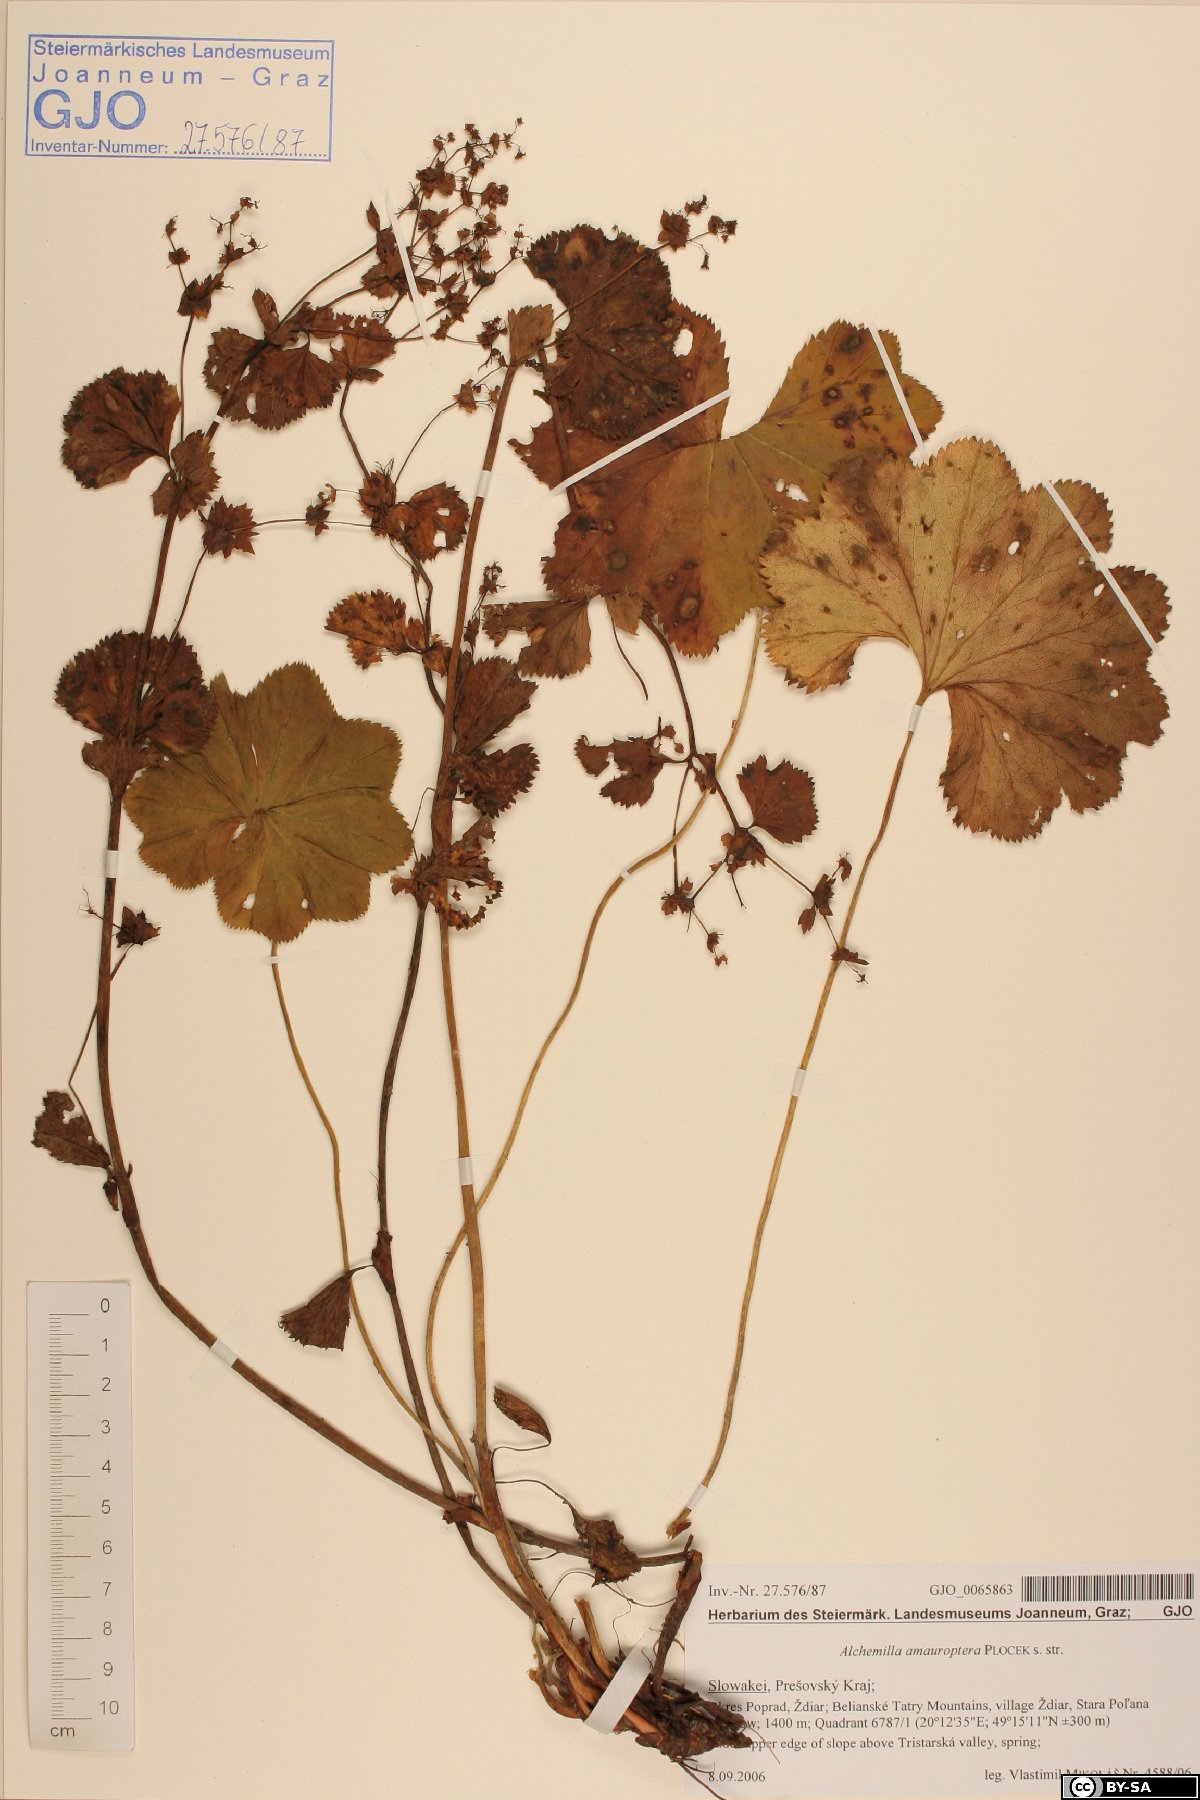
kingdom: Plantae
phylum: Tracheophyta
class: Magnoliopsida
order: Rosales
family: Rosaceae
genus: Alchemilla
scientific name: Alchemilla amauroptera
